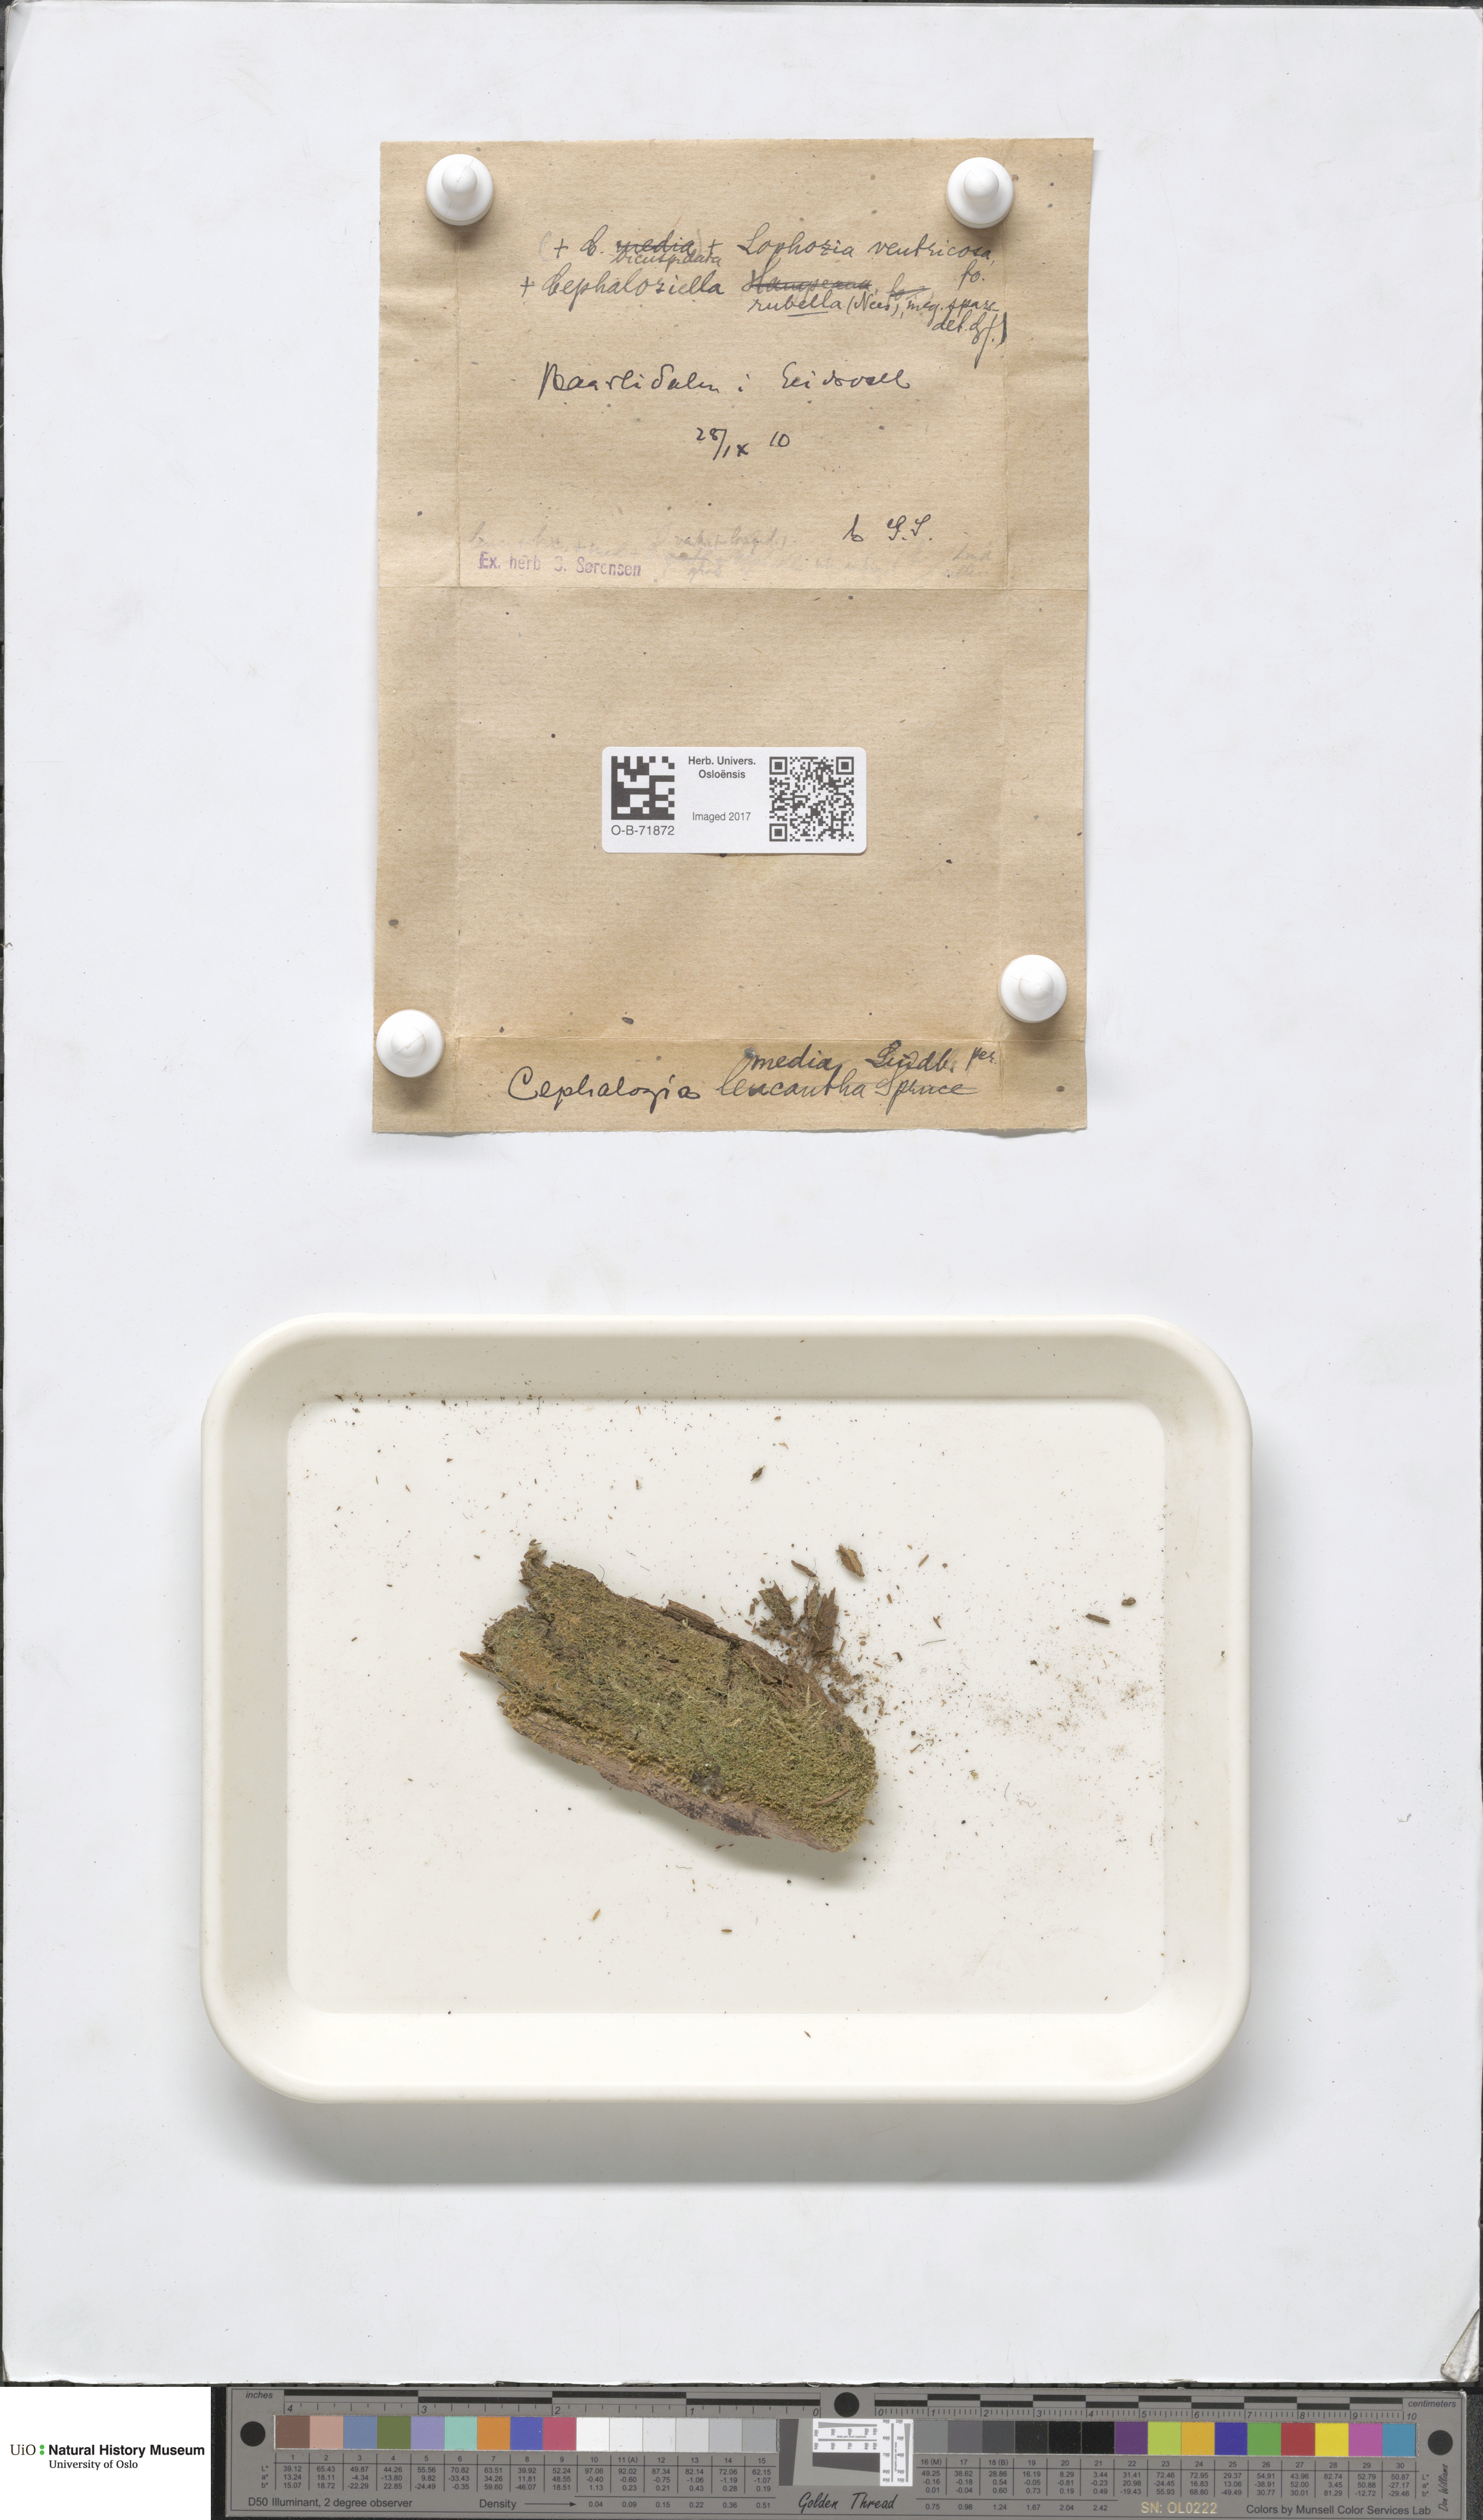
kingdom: Plantae
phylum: Marchantiophyta
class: Jungermanniopsida
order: Jungermanniales
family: Cephaloziellaceae
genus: Cephaloziella
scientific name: Cephaloziella rubella
